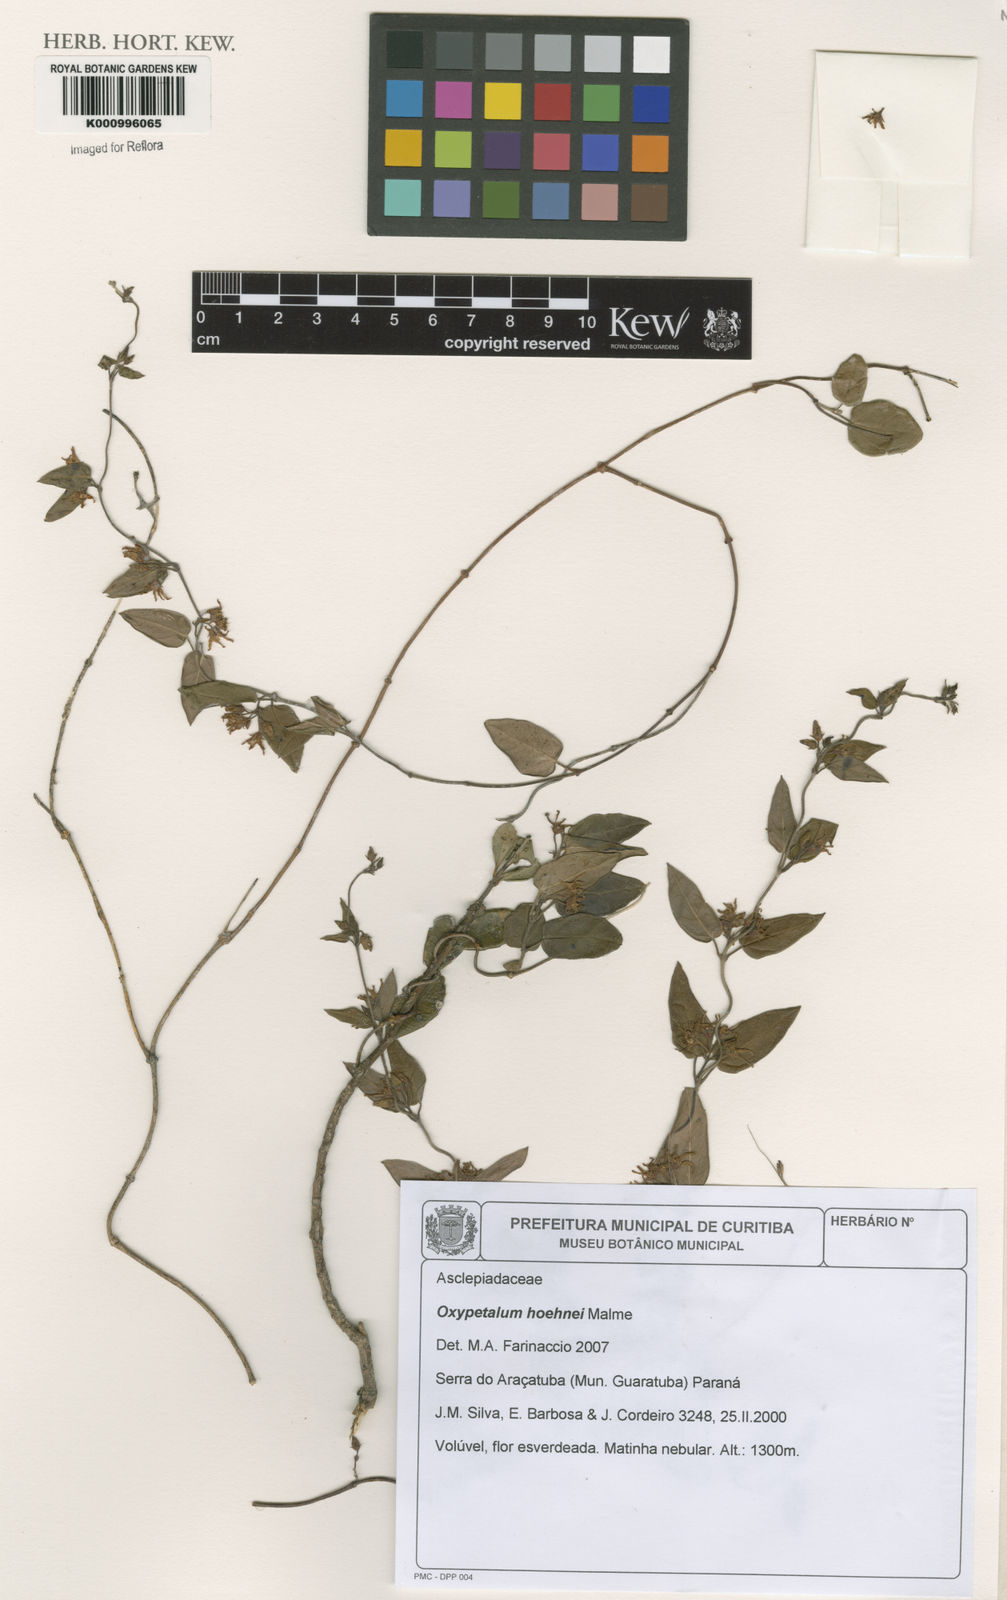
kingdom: Plantae
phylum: Tracheophyta
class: Magnoliopsida
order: Gentianales
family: Apocynaceae
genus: Oxypetalum
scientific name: Oxypetalum hoehnei
